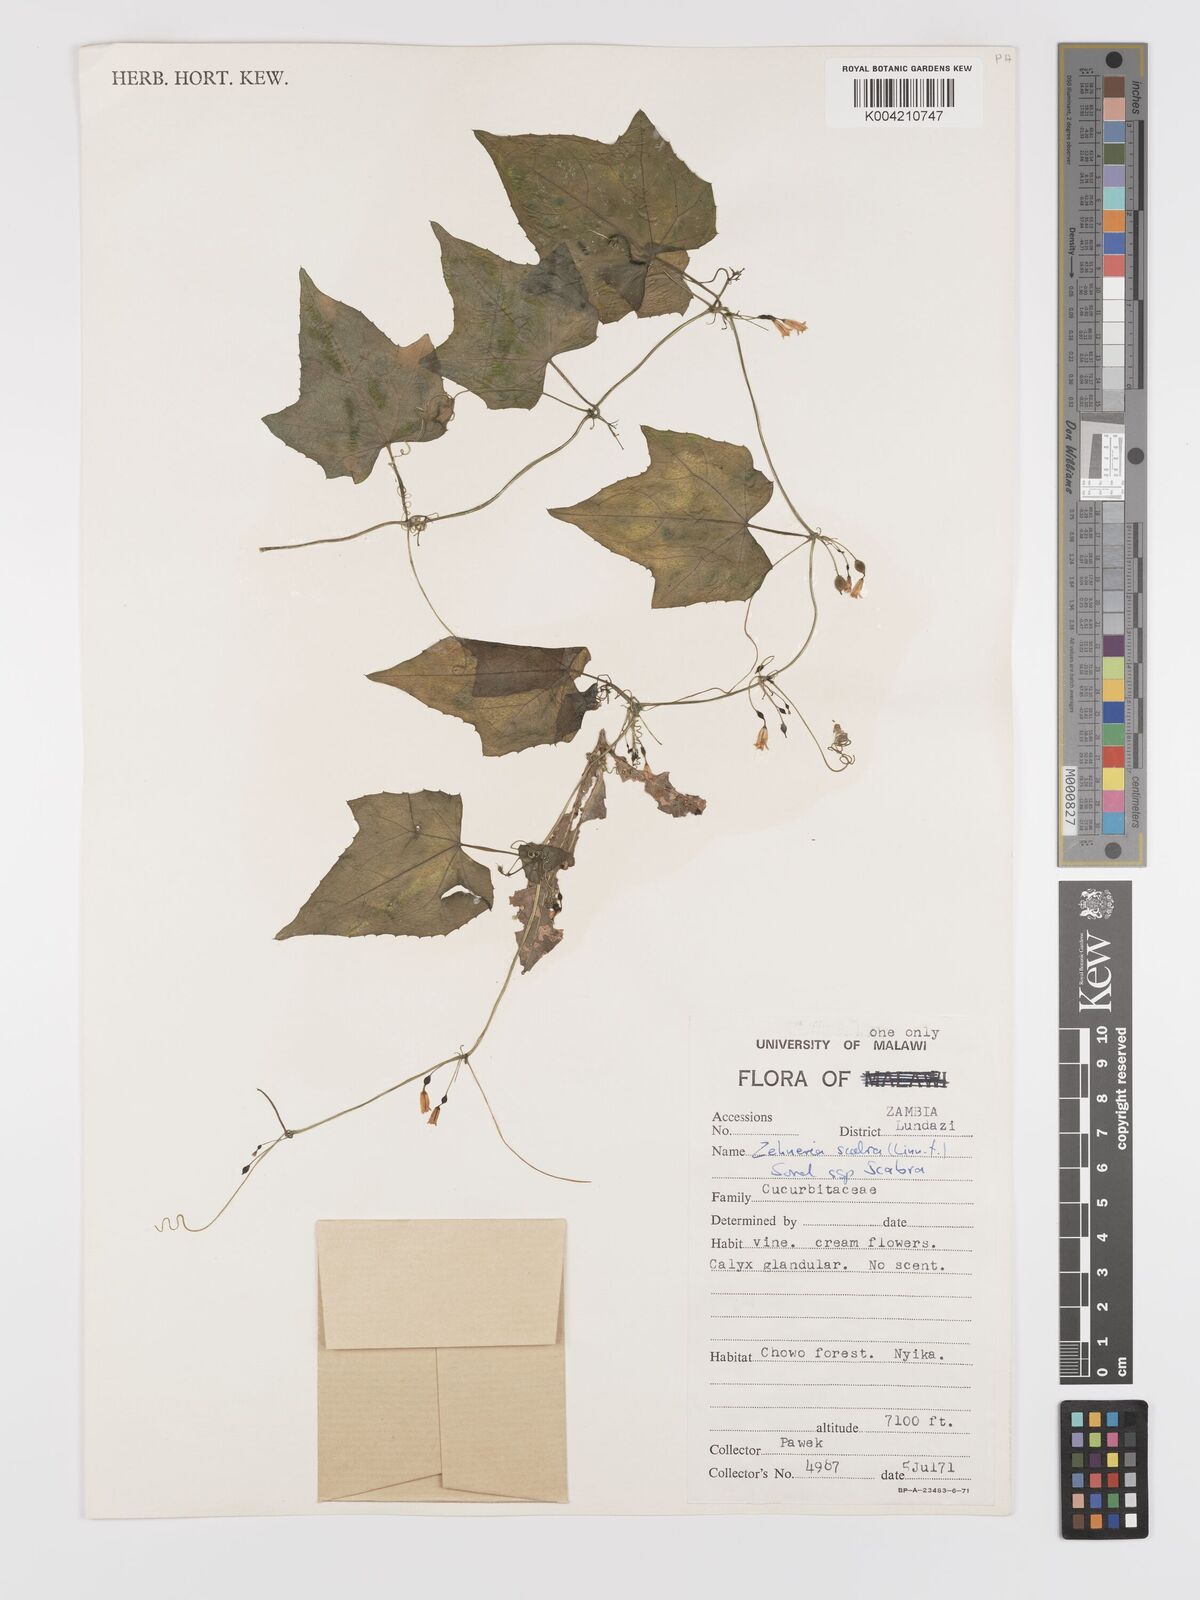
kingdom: Plantae
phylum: Tracheophyta
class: Magnoliopsida
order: Cucurbitales
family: Cucurbitaceae
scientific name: Cucurbitaceae
